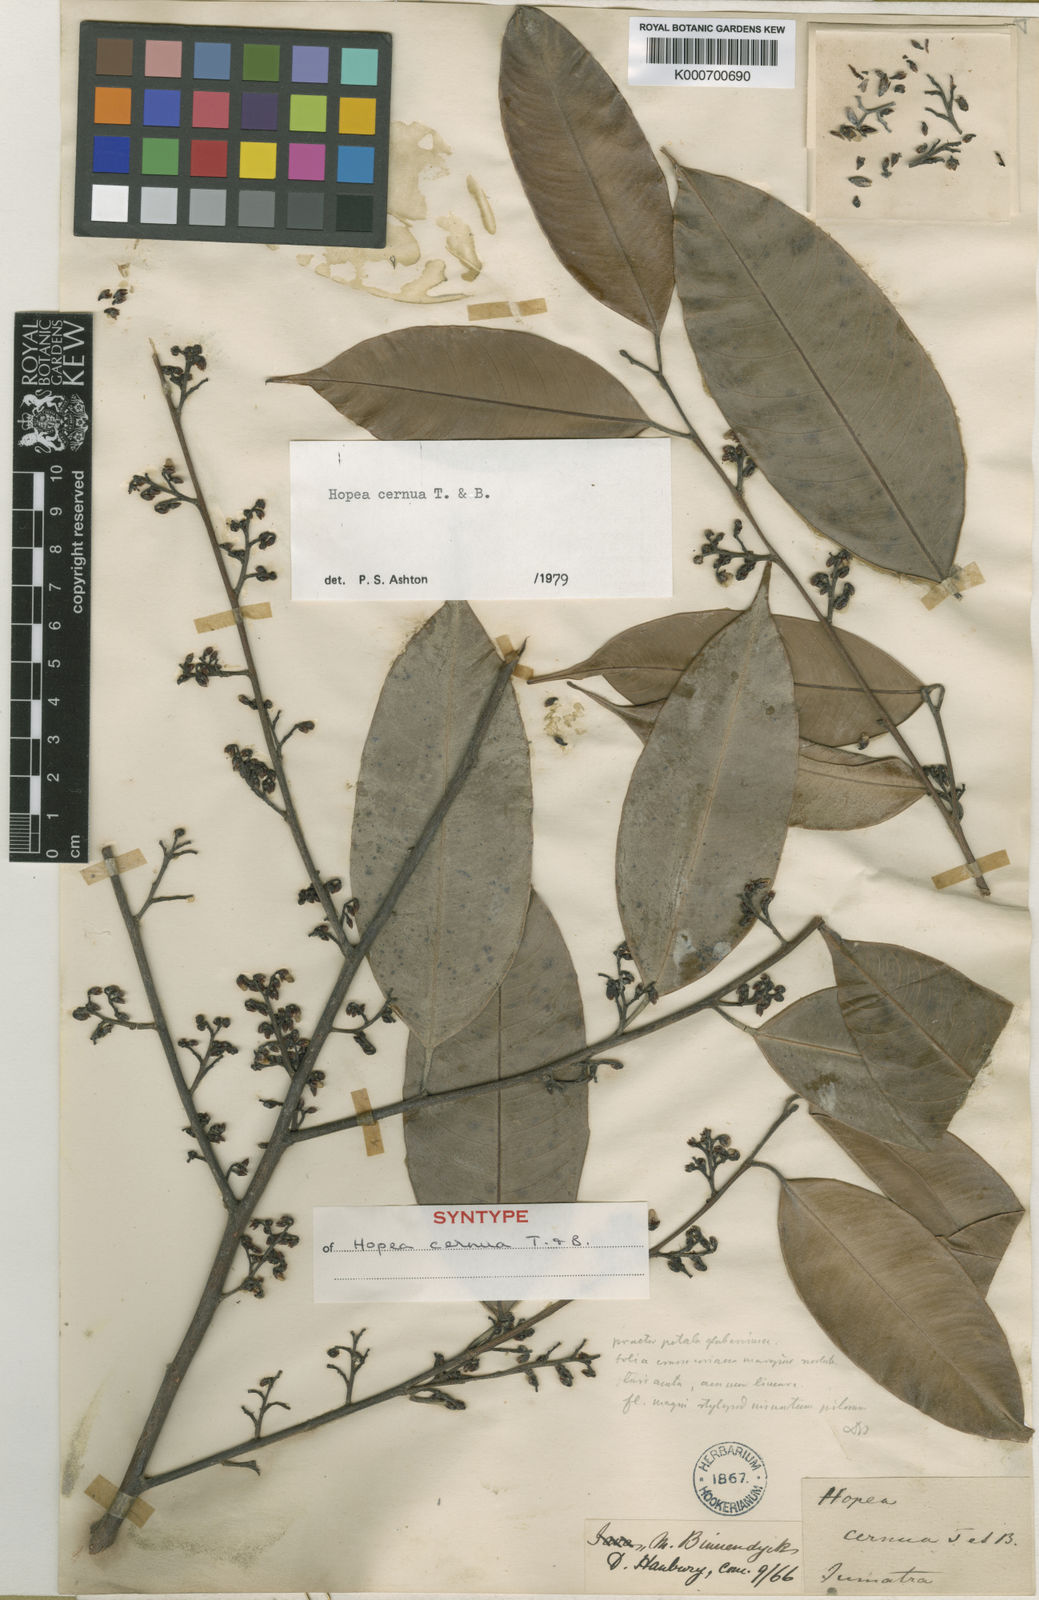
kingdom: Plantae
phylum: Tracheophyta
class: Magnoliopsida
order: Malvales
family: Dipterocarpaceae
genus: Hopea
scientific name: Hopea cernua
